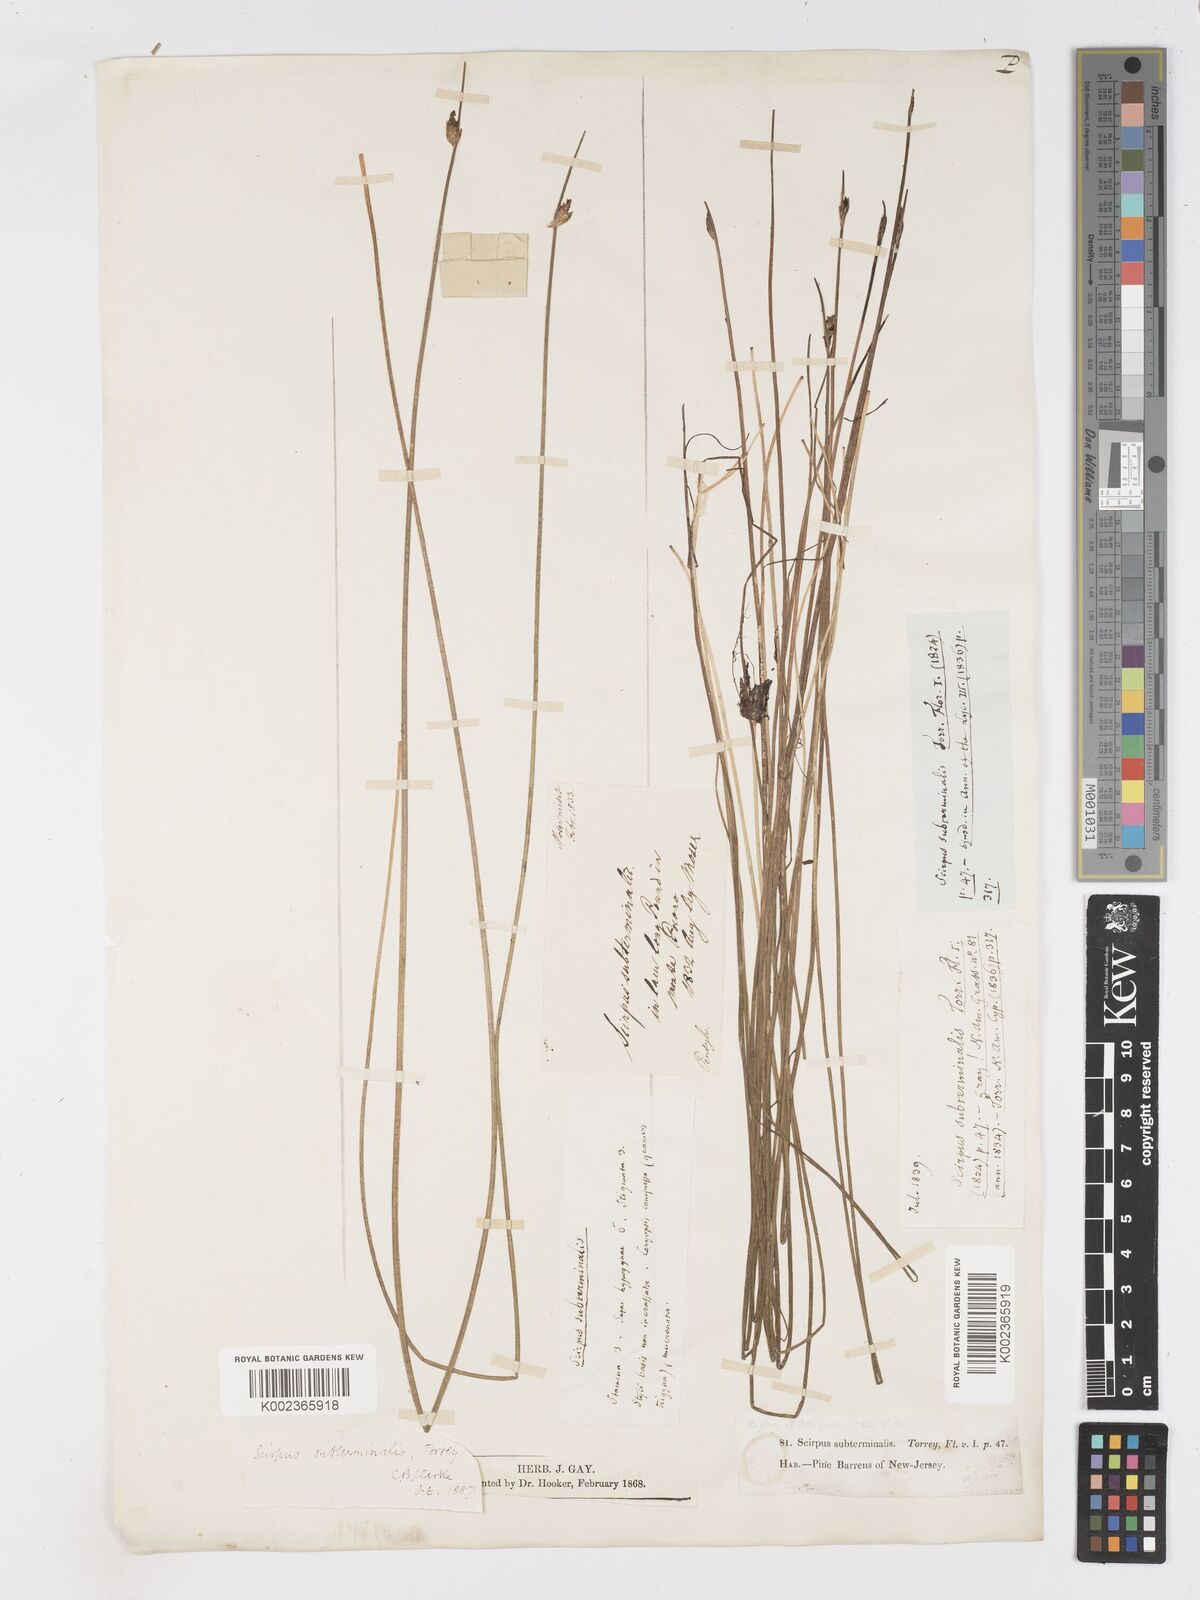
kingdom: Plantae
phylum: Tracheophyta
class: Liliopsida
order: Poales
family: Cyperaceae
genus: Schoenoplectus
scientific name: Schoenoplectus subterminalis
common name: Swaying bulrush
